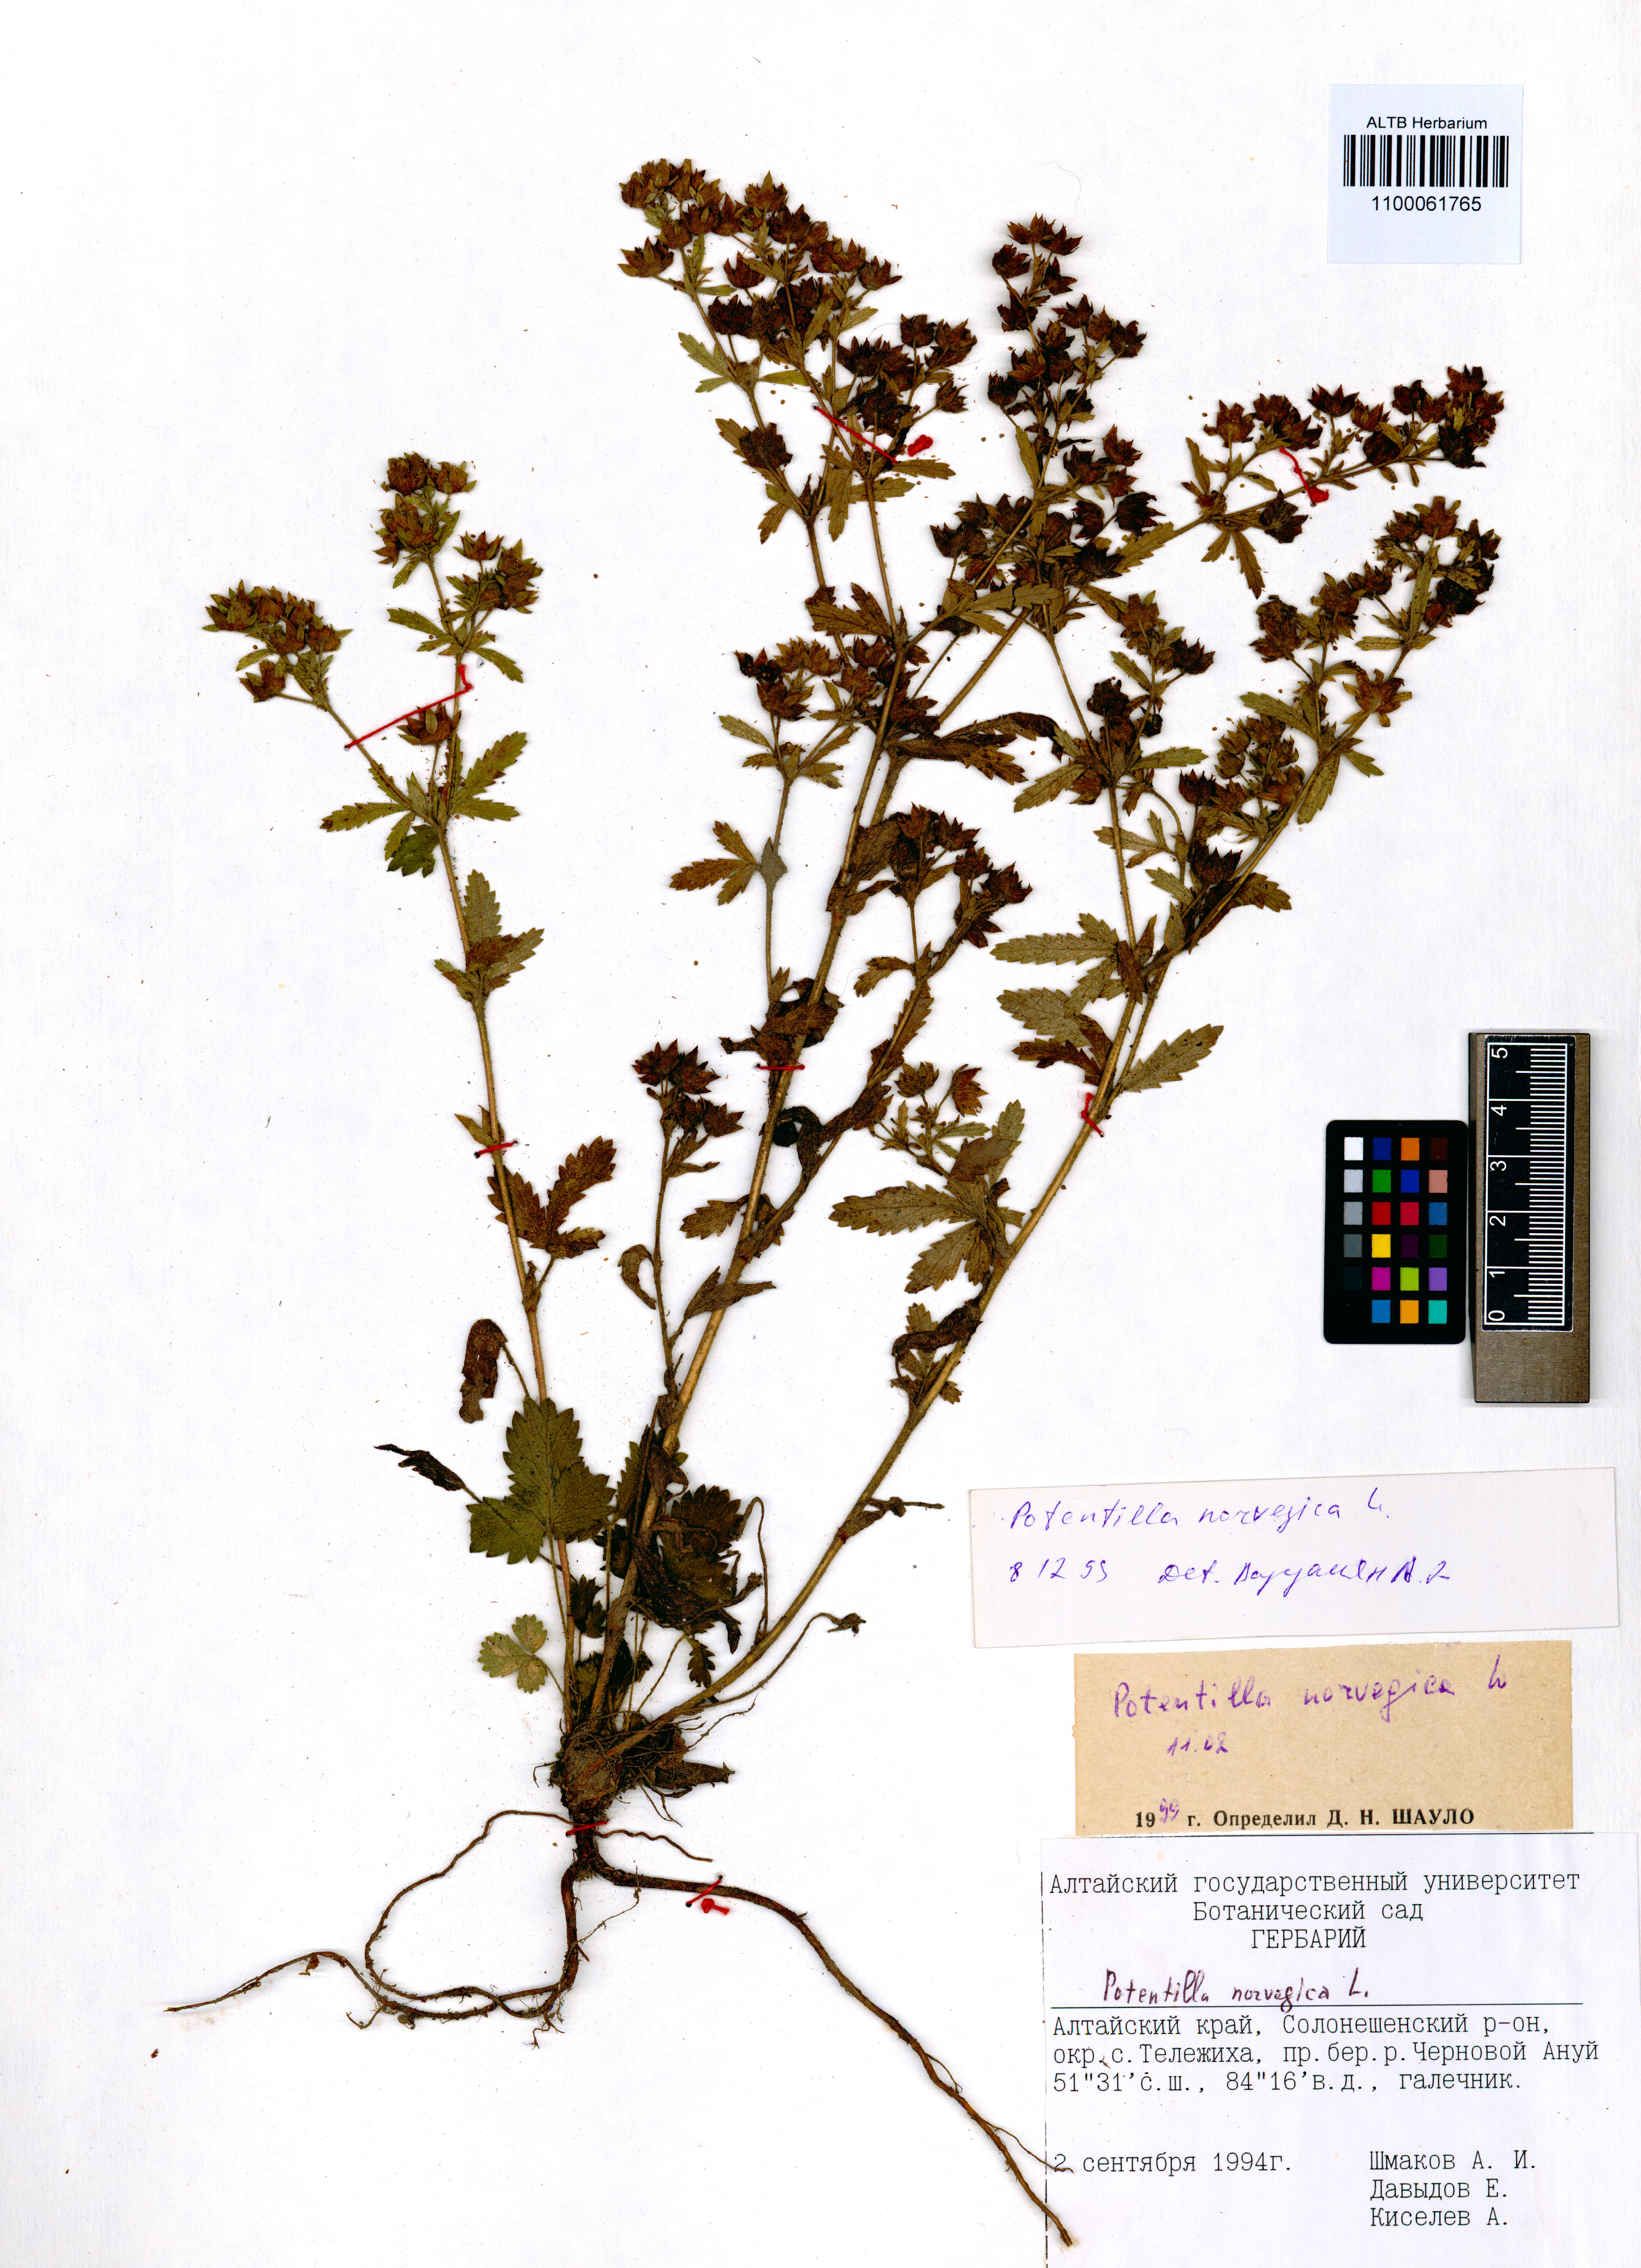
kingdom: Plantae
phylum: Tracheophyta
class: Magnoliopsida
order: Rosales
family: Rosaceae
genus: Potentilla
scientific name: Potentilla norvegica
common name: Ternate-leaved cinquefoil
